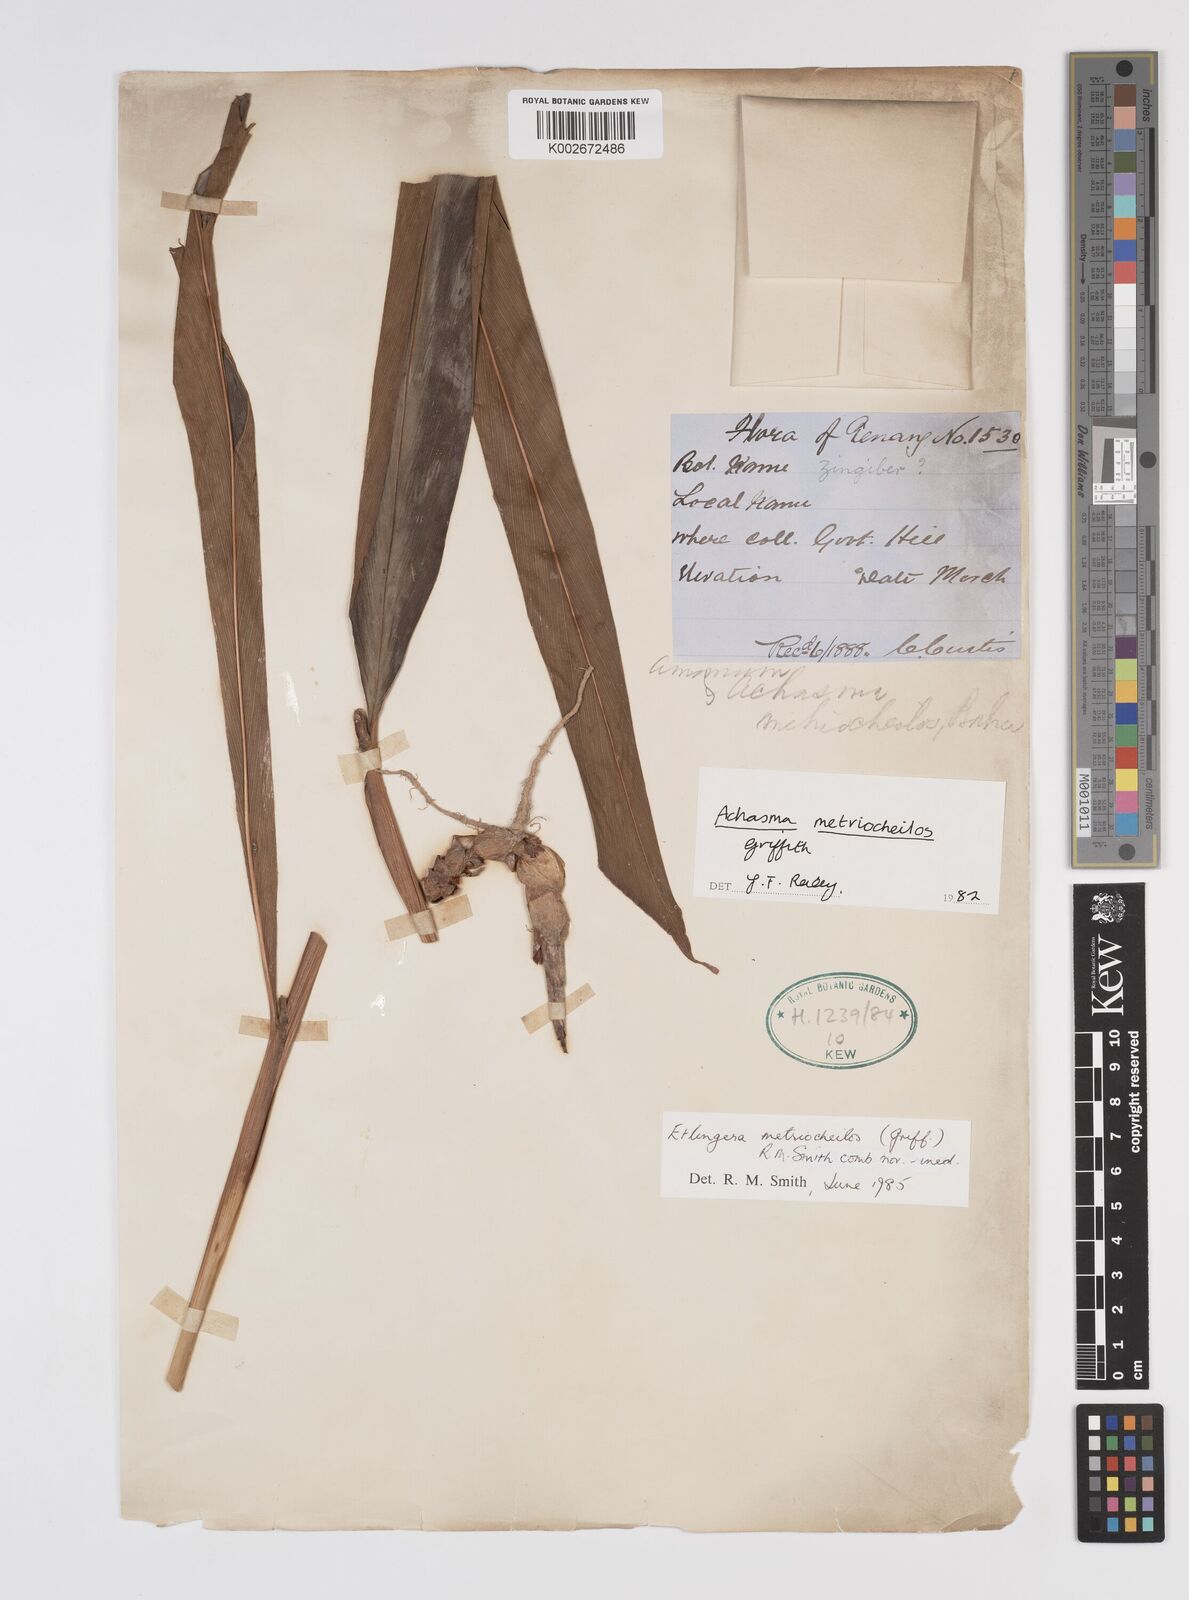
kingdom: Plantae
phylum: Tracheophyta
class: Liliopsida
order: Zingiberales
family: Zingiberaceae
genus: Etlingera
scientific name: Etlingera metriocheilos
